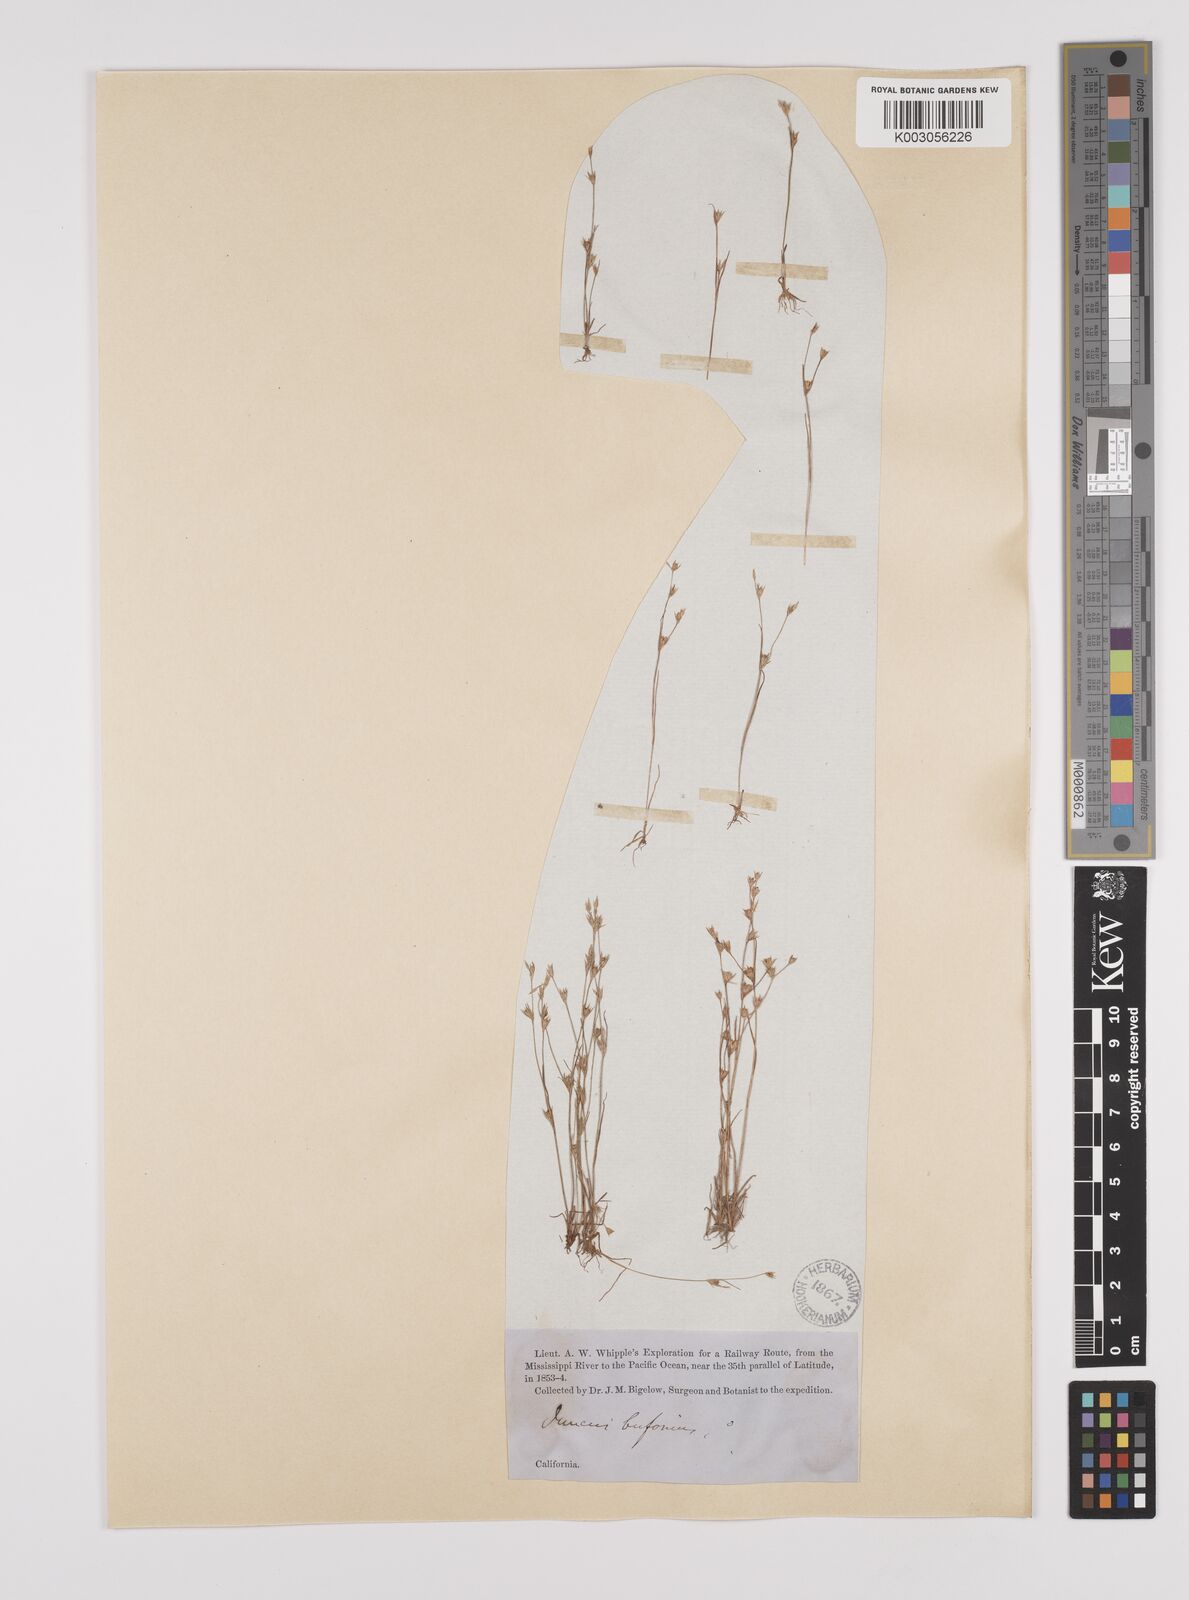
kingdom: Plantae
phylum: Tracheophyta
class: Liliopsida
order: Poales
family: Juncaceae
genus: Juncus
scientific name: Juncus bufonius
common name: Toad rush
